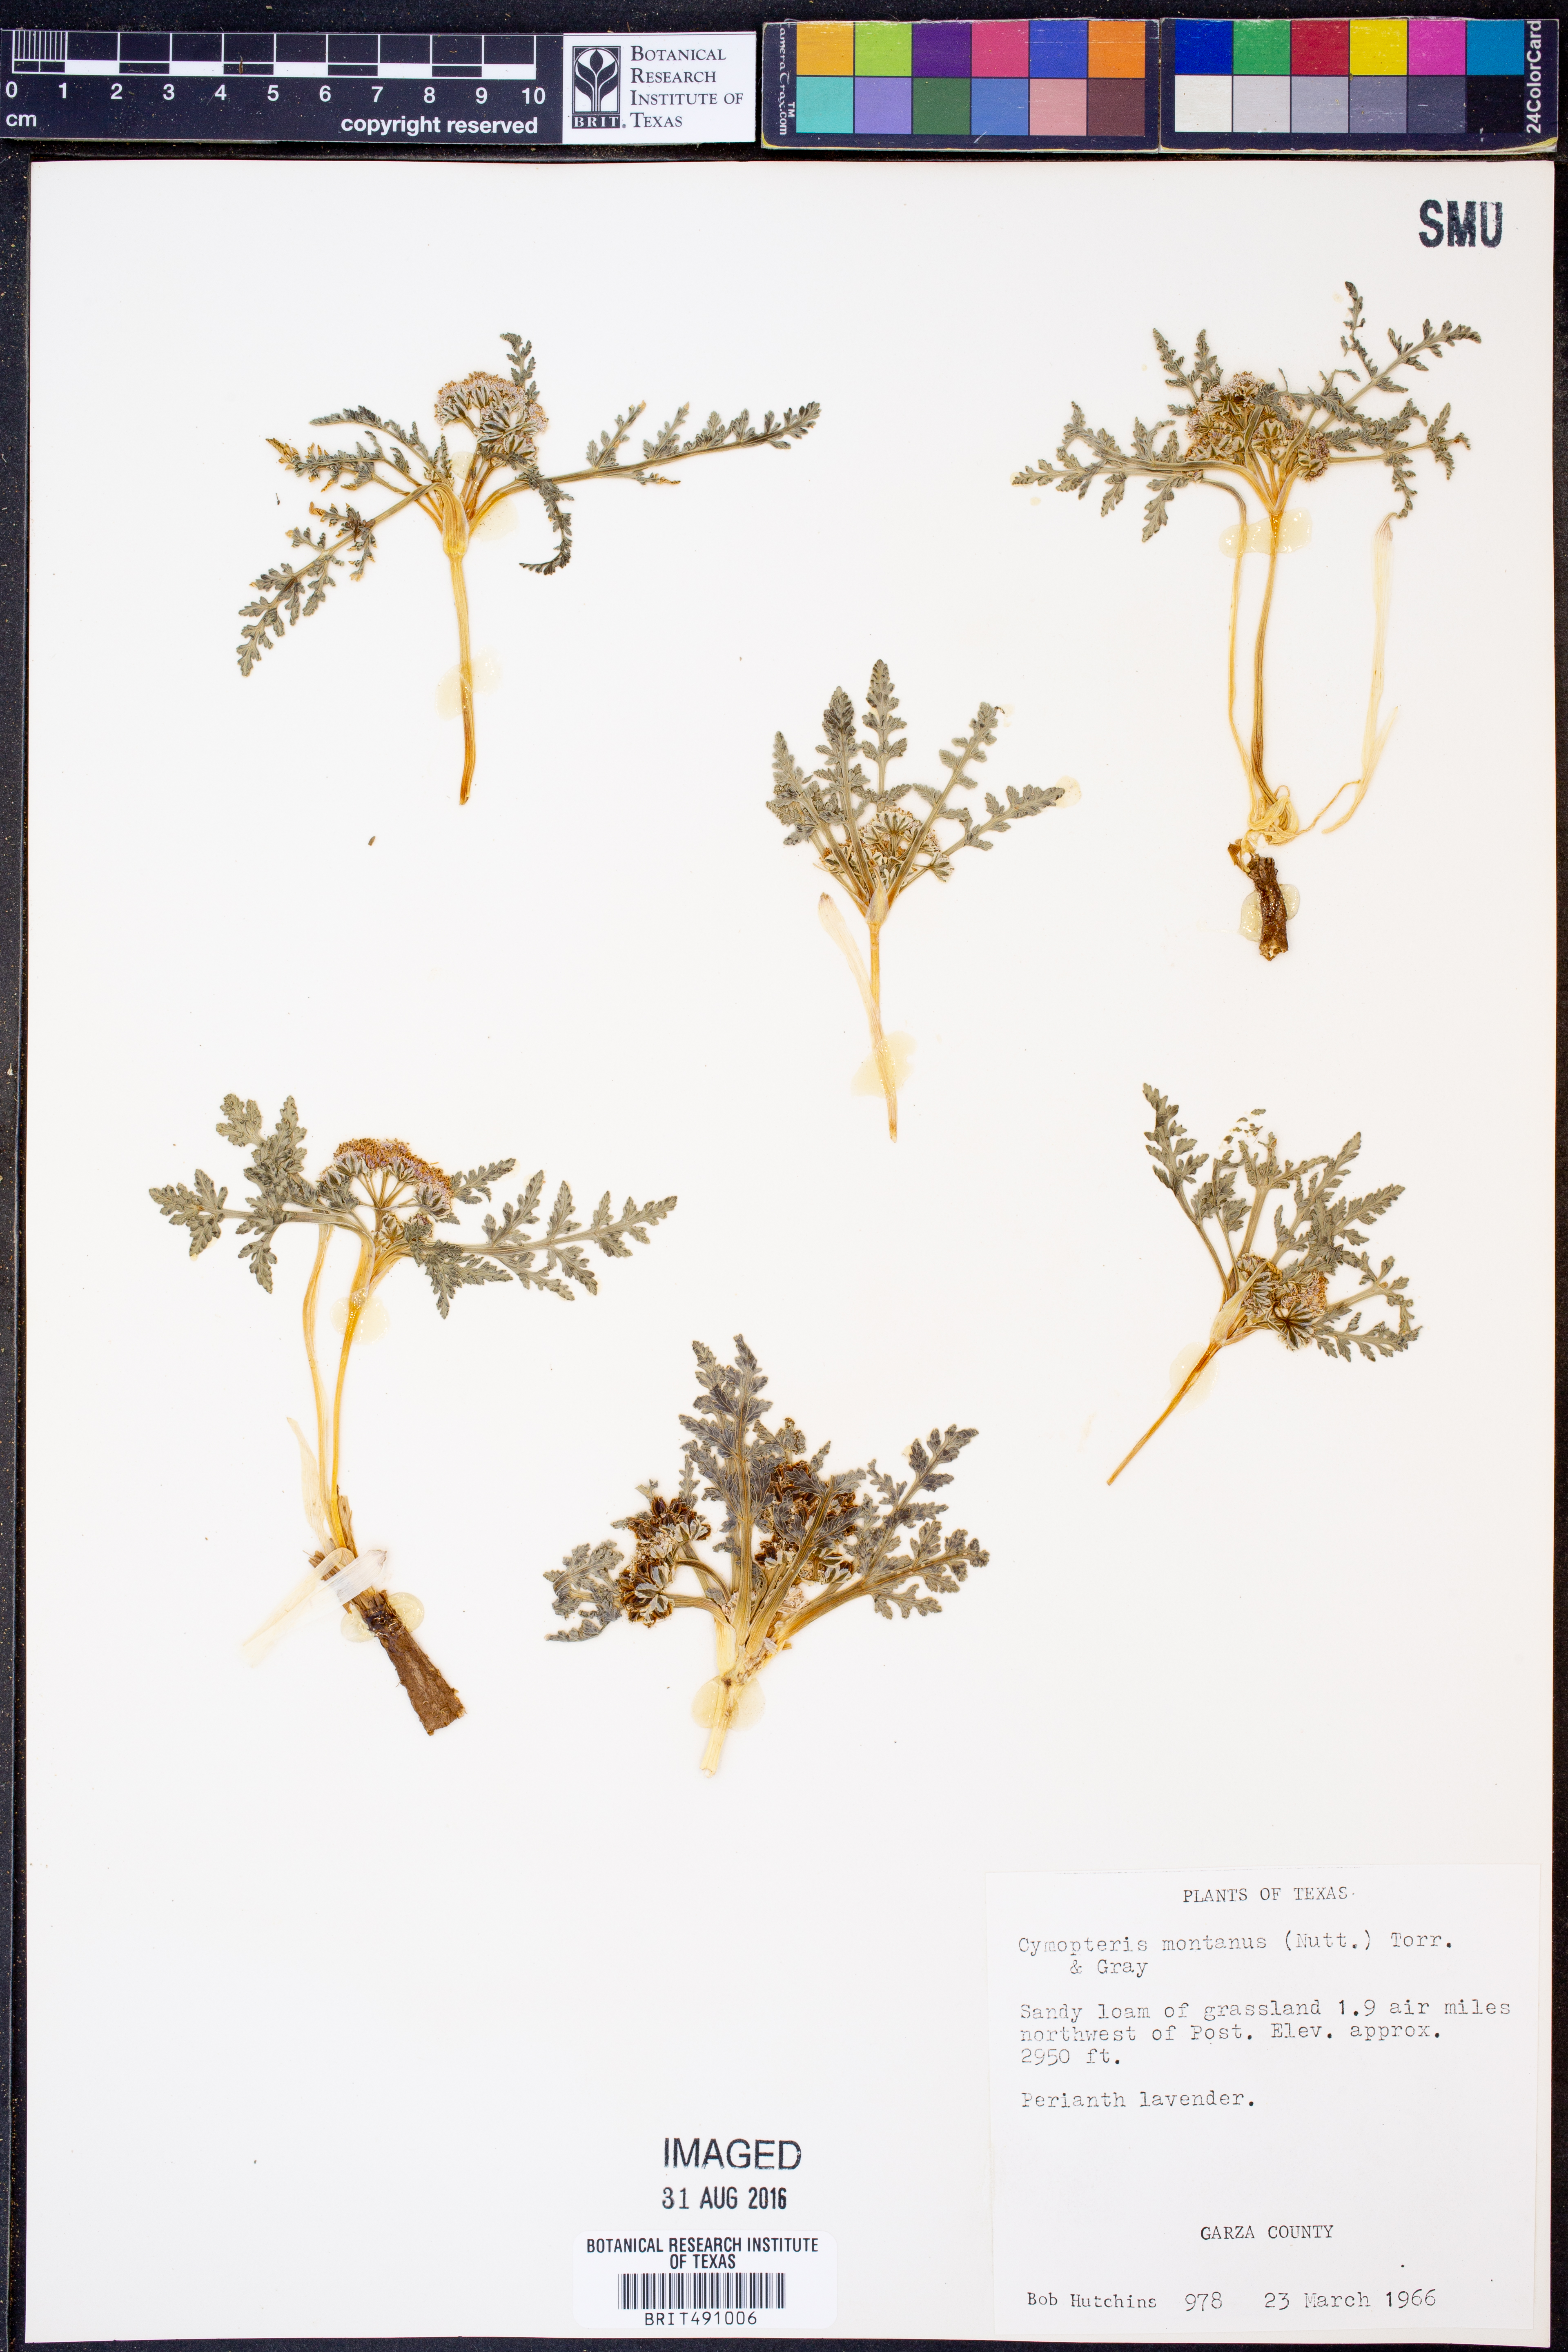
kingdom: Plantae
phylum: Tracheophyta
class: Magnoliopsida
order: Apiales
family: Apiaceae
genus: Vesper
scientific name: Vesper montanus
